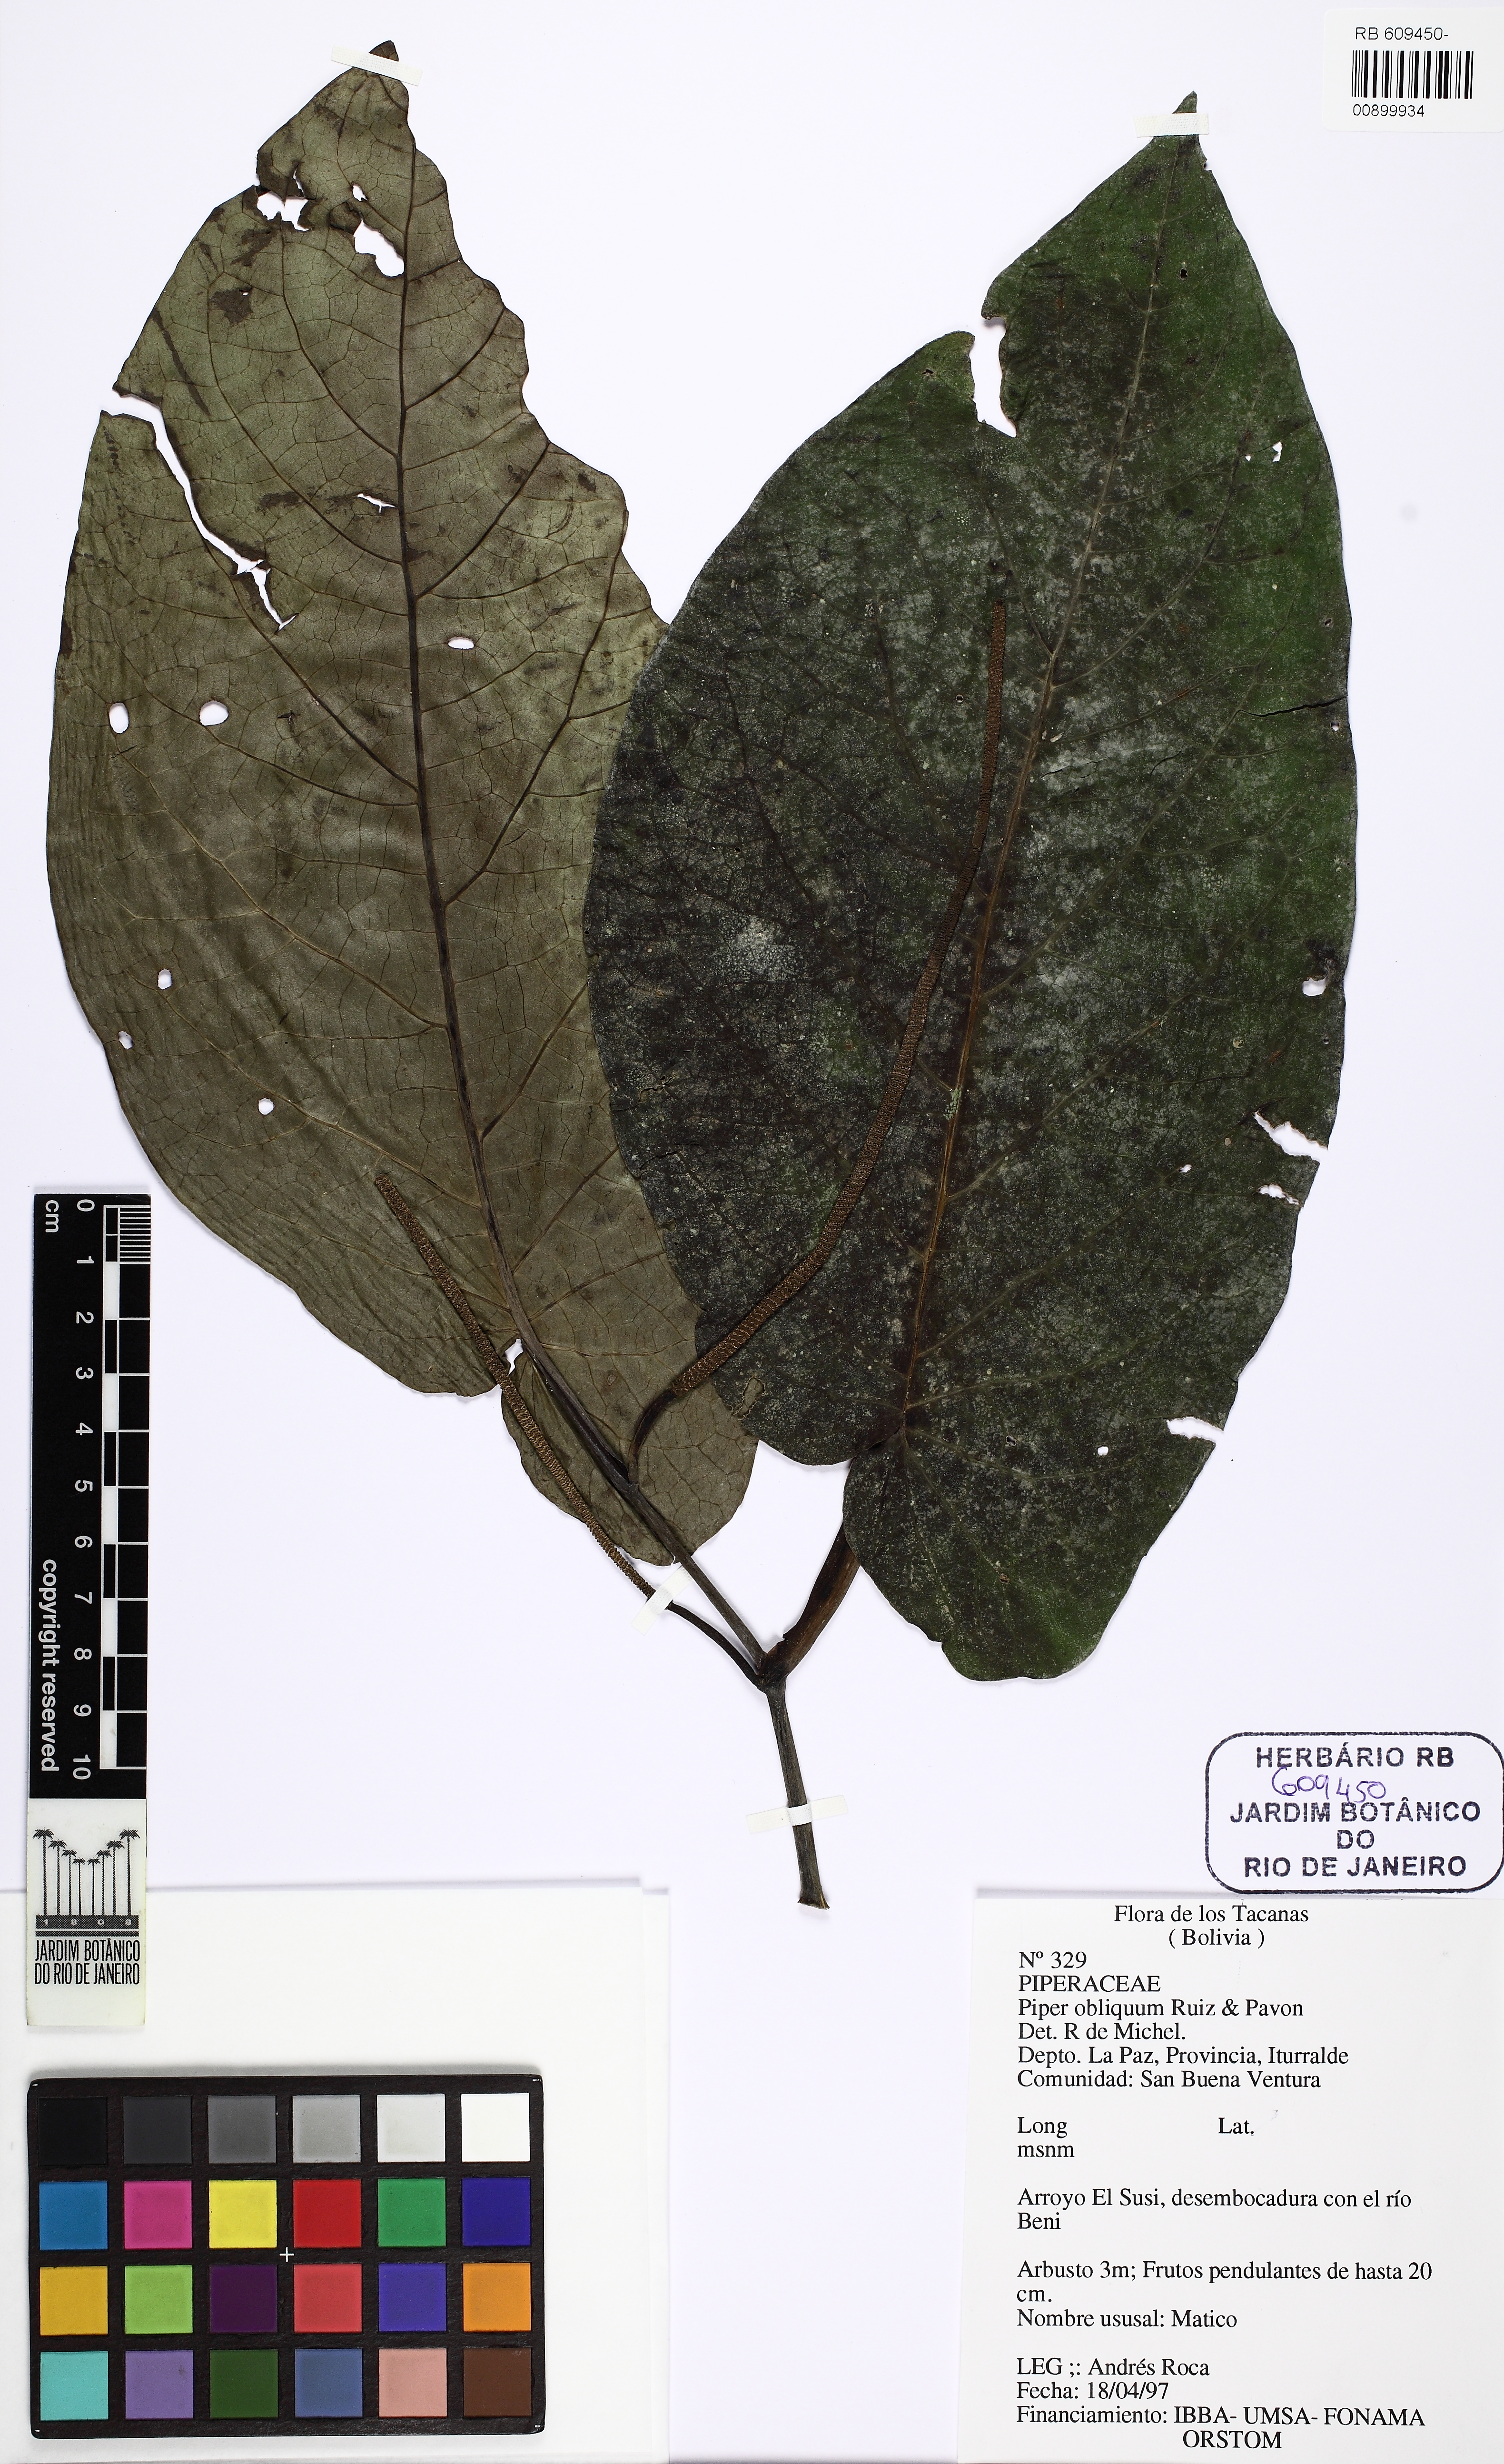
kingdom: Plantae
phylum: Tracheophyta
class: Magnoliopsida
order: Piperales
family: Piperaceae
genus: Piper
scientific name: Piper obliquum
